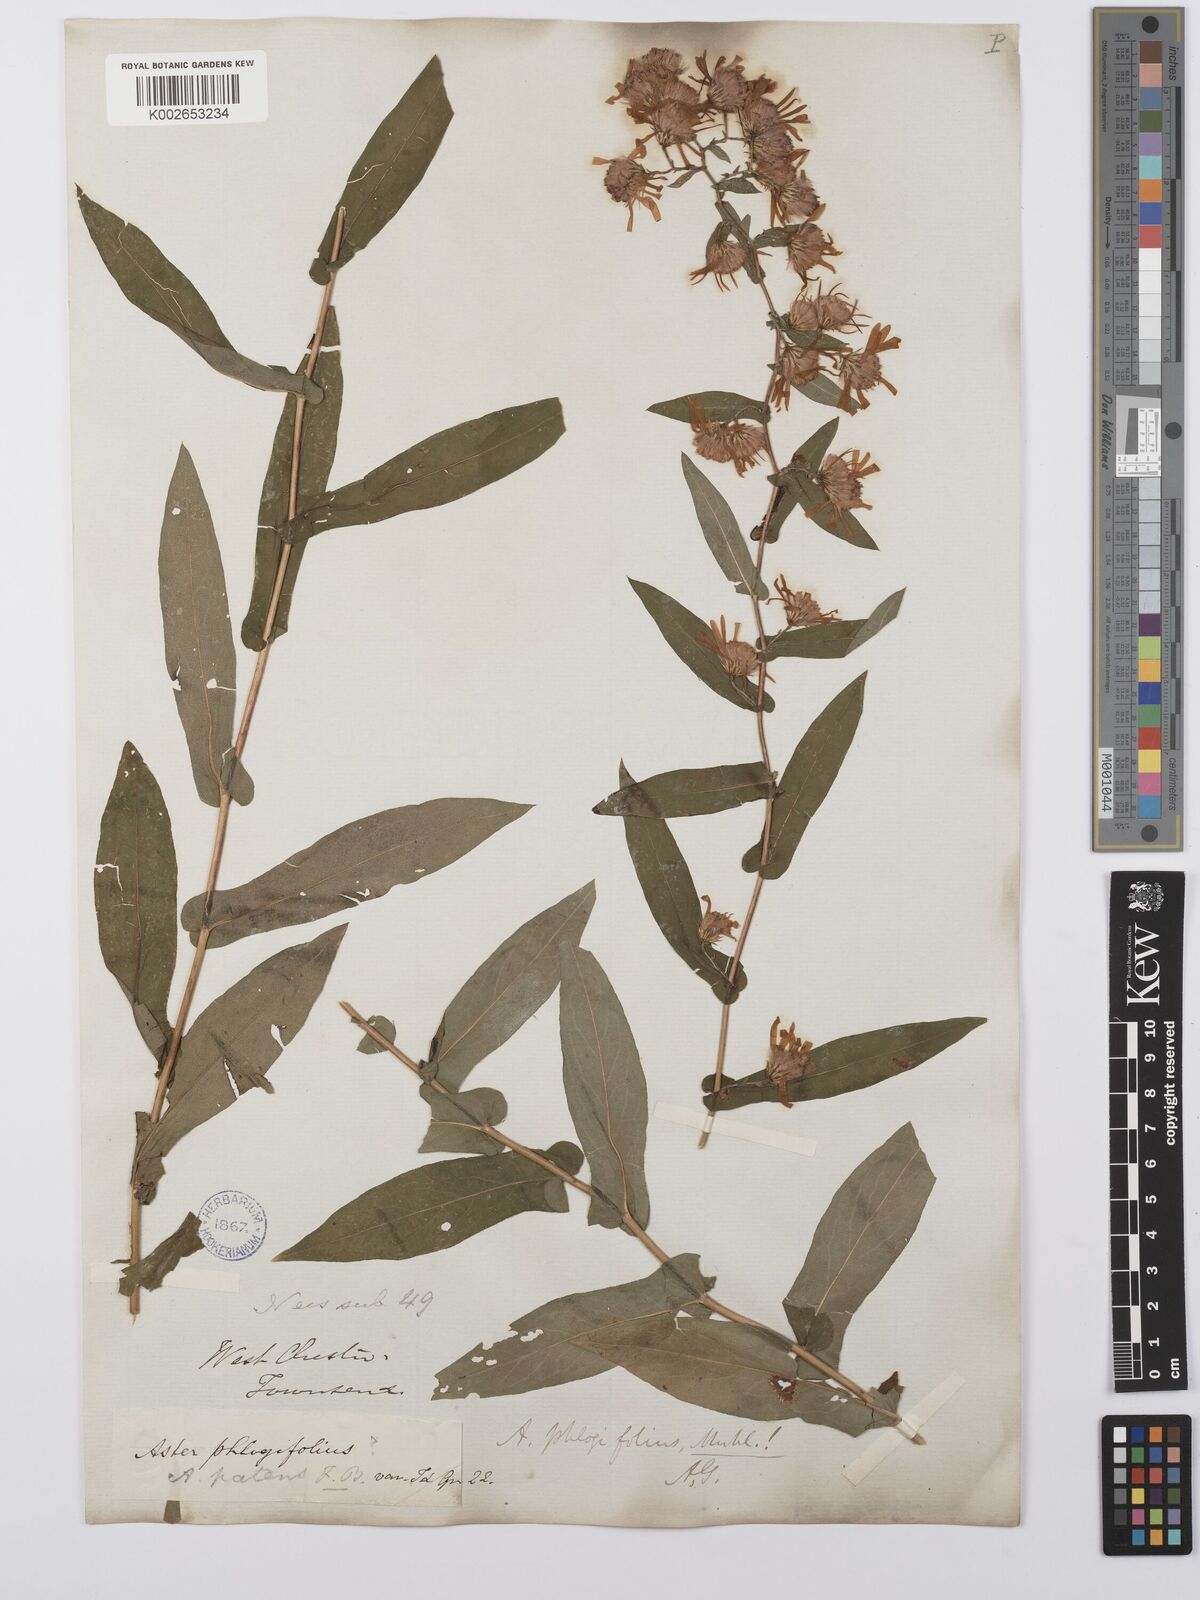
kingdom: Plantae
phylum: Tracheophyta
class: Magnoliopsida
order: Asterales
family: Asteraceae
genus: Symphyotrichum
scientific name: Symphyotrichum phlogifolium
